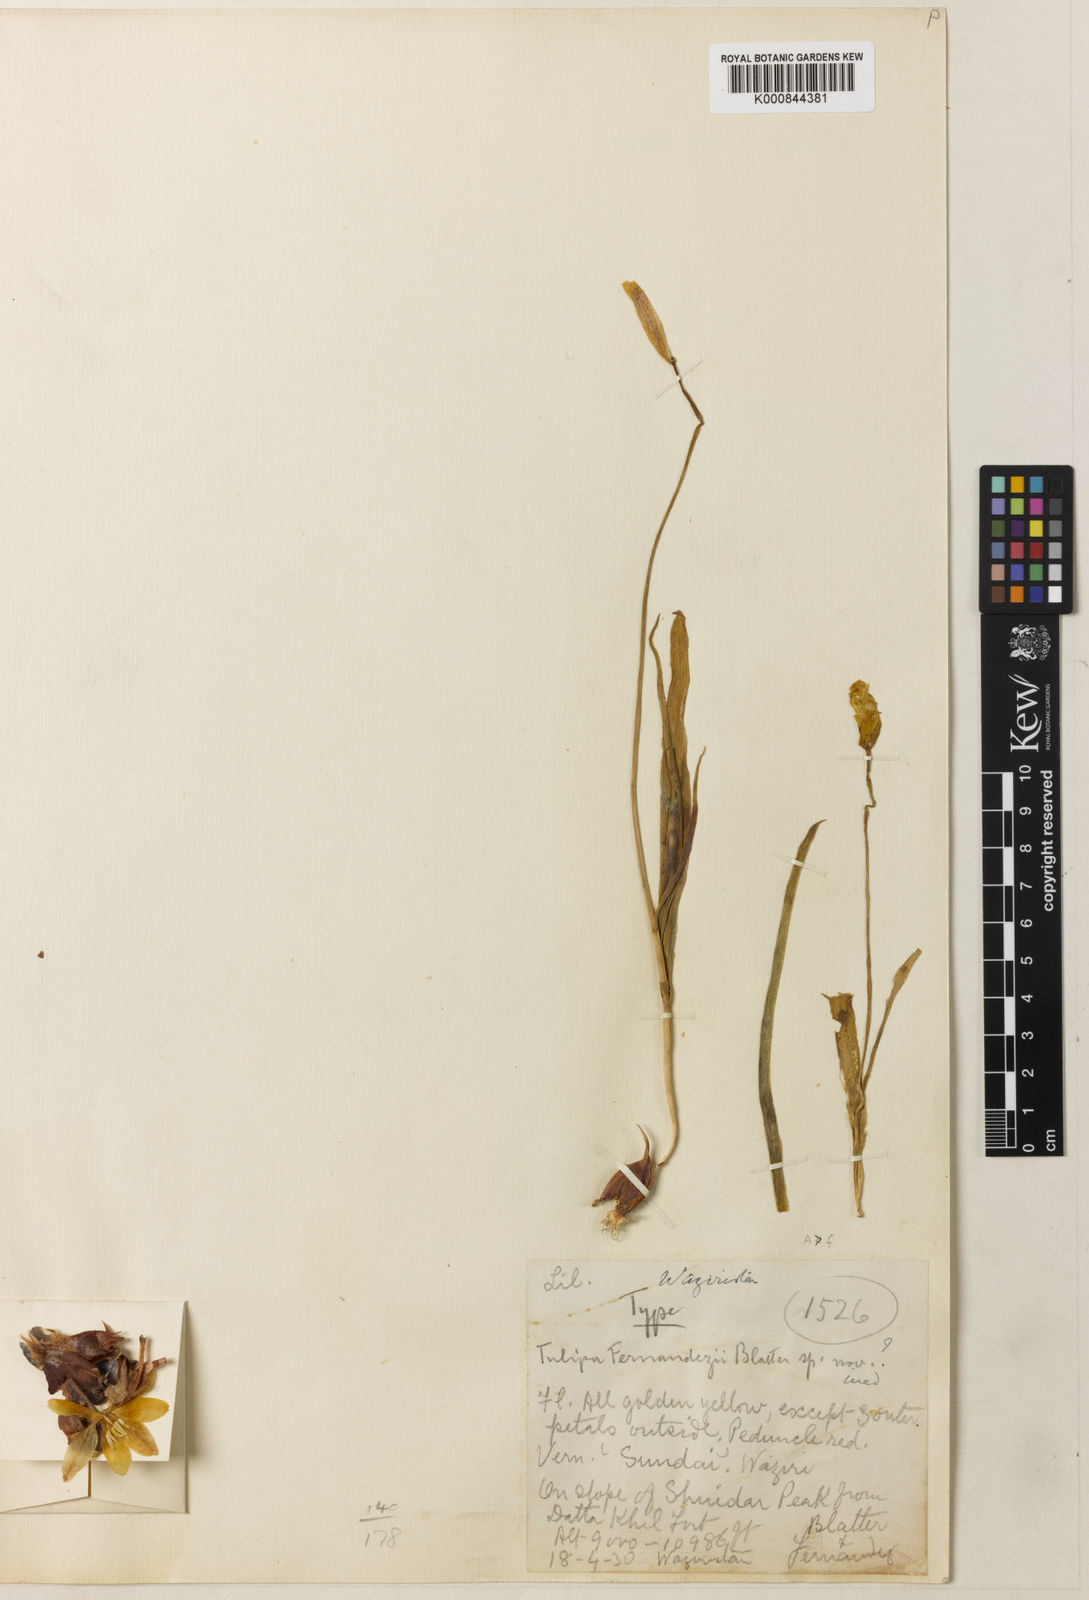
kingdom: Plantae
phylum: Tracheophyta
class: Liliopsida
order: Liliales
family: Liliaceae
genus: Tulipa
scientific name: Tulipa clusiana
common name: Lady tulip
